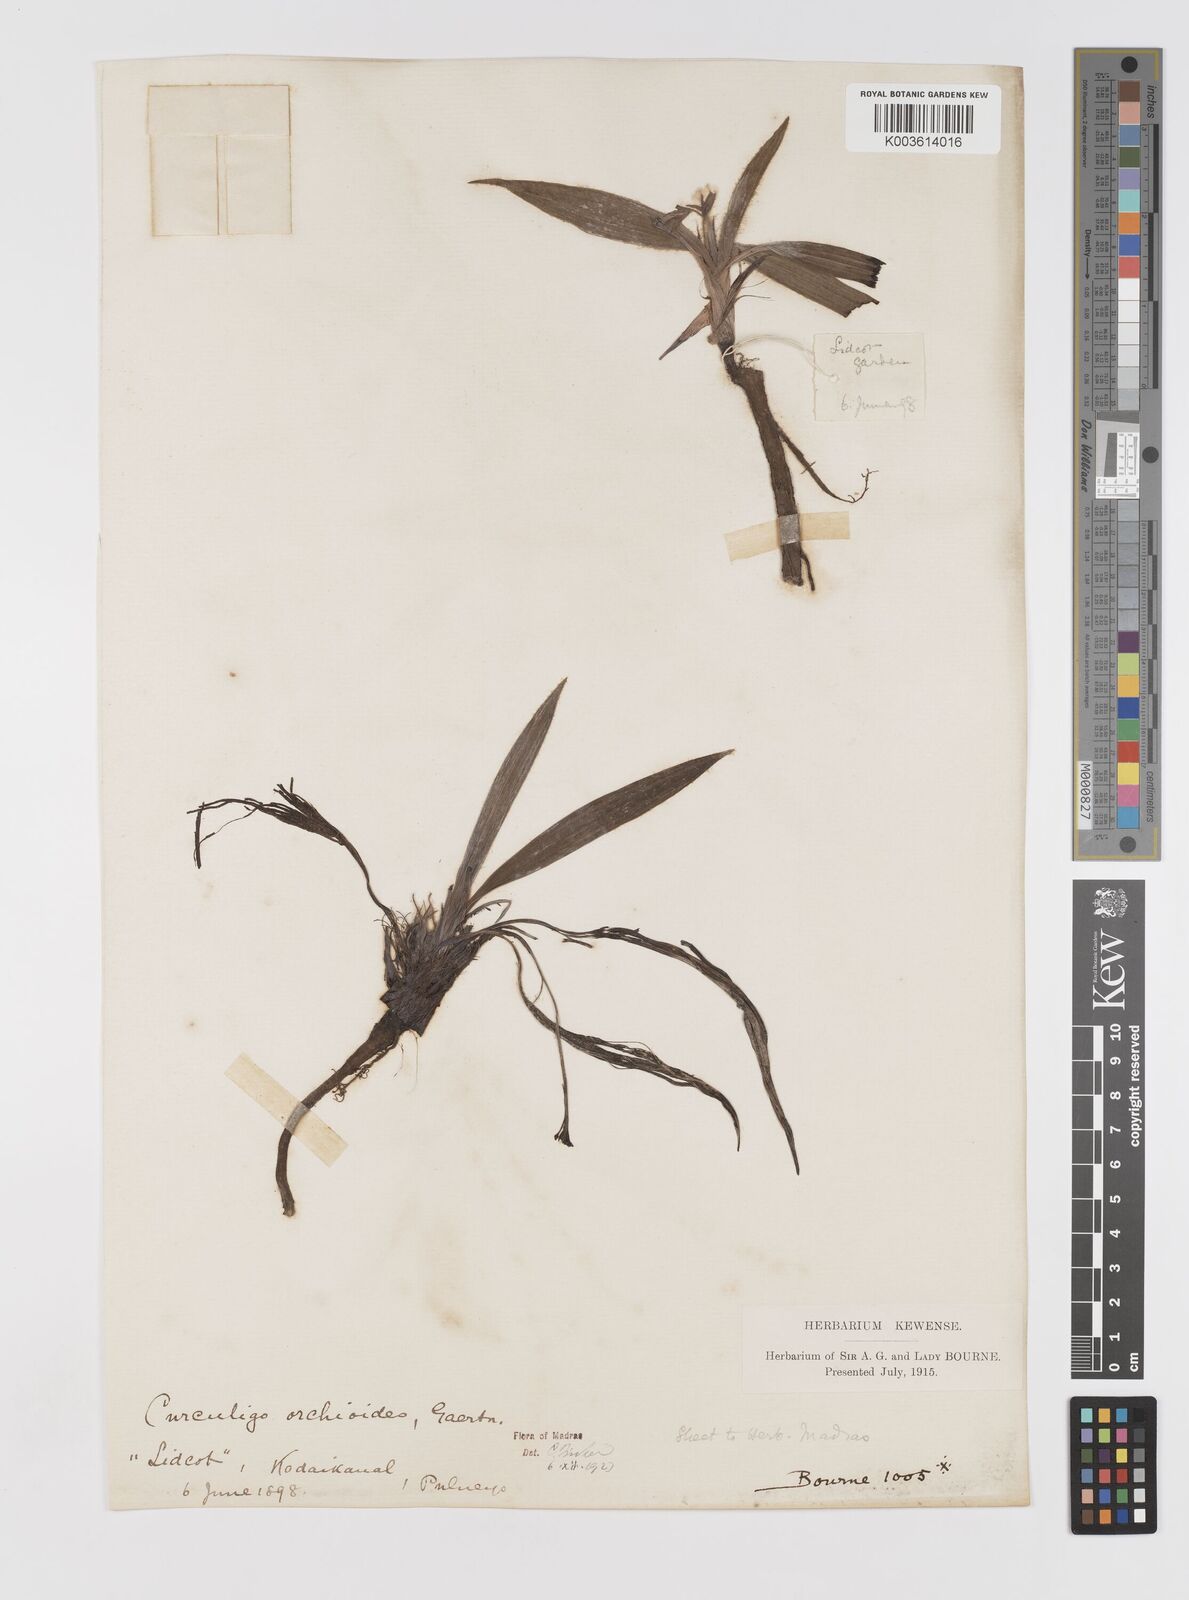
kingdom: Plantae
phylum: Tracheophyta
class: Liliopsida
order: Asparagales
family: Hypoxidaceae
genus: Curculigo
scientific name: Curculigo orchioides
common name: Golden eye-grass
